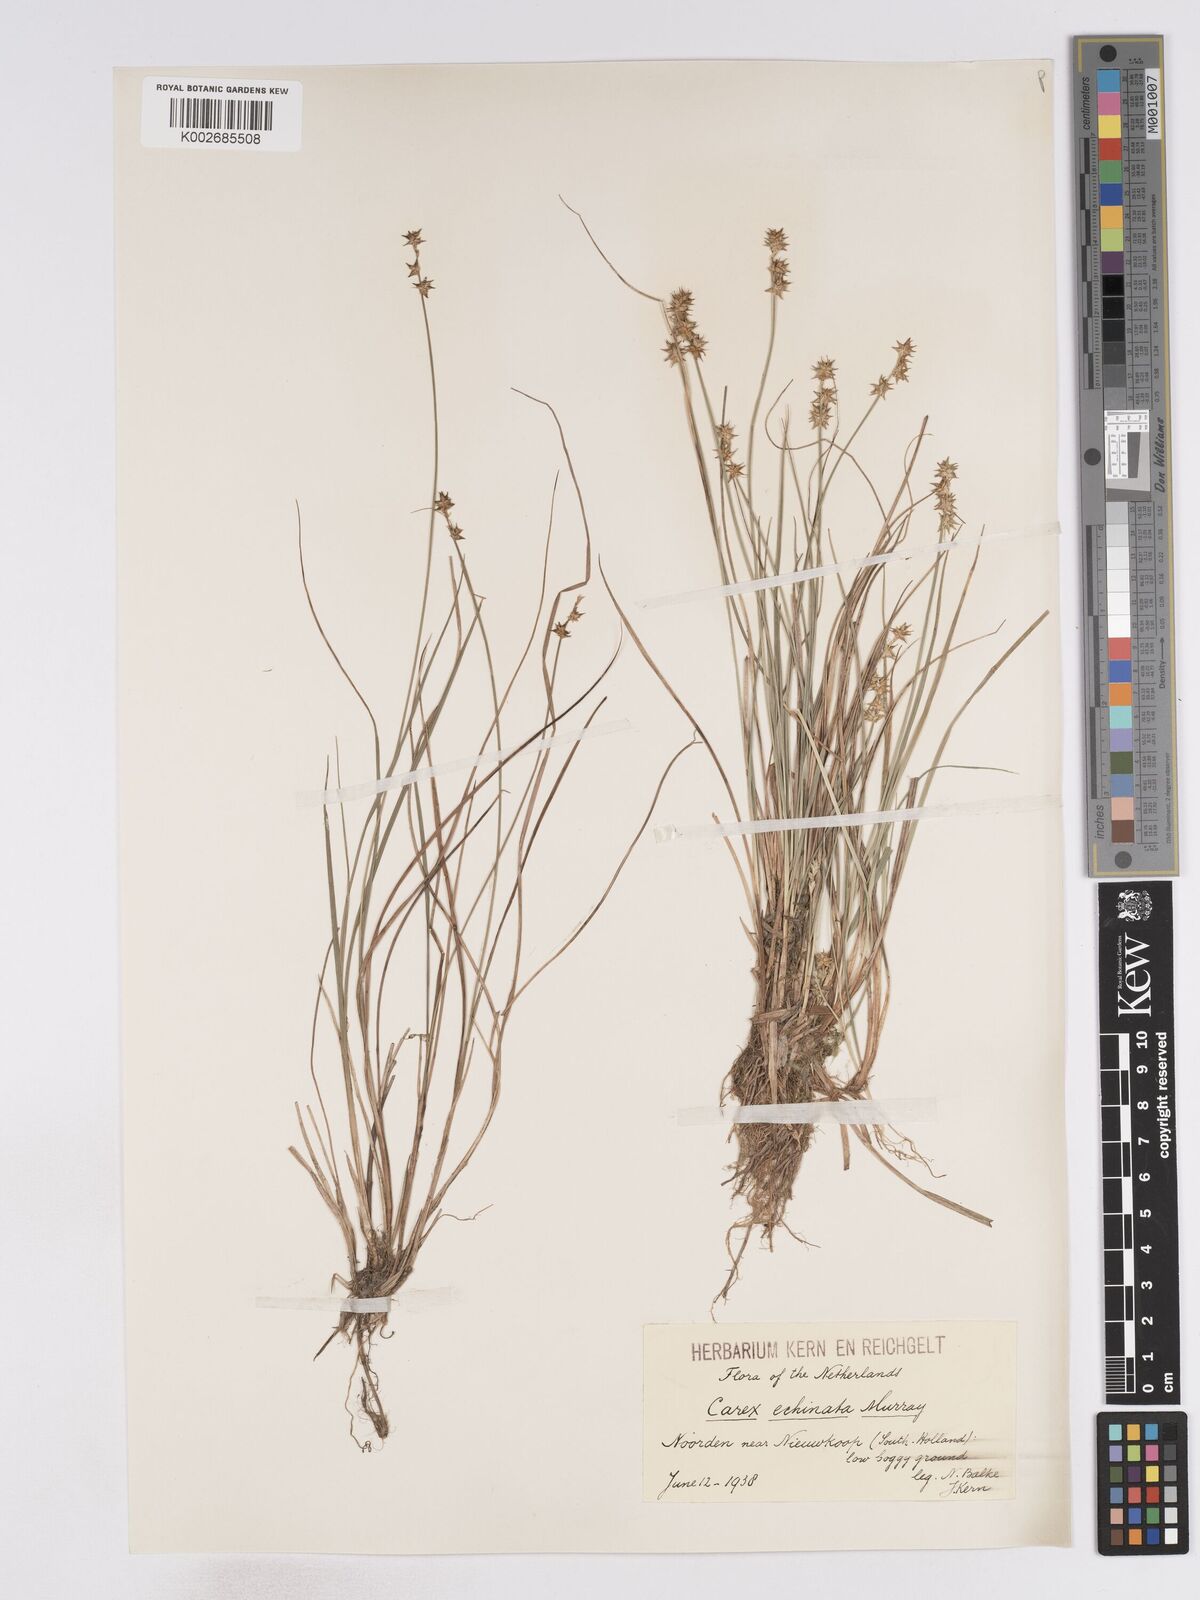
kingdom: Plantae
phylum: Tracheophyta
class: Liliopsida
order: Poales
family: Cyperaceae
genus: Carex
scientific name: Carex echinata
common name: Star sedge
